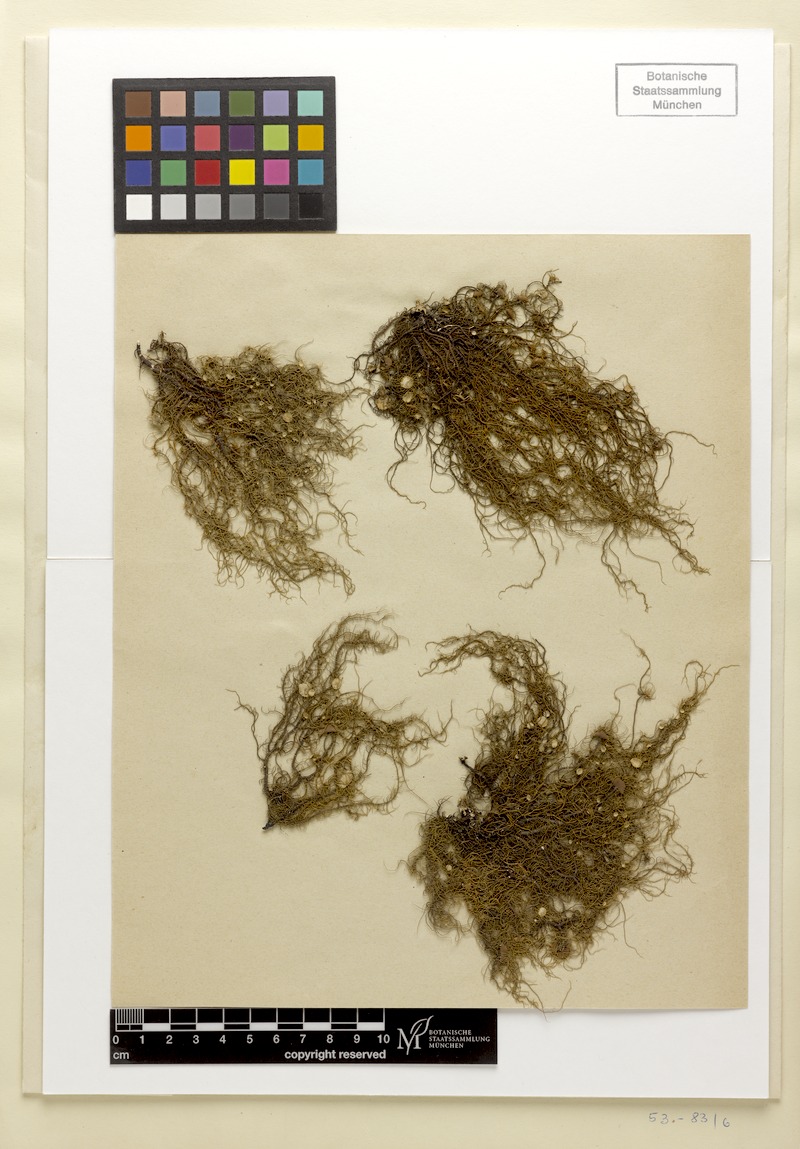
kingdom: Fungi
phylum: Ascomycota
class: Lecanoromycetes
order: Lecanorales
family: Parmeliaceae
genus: Usnea
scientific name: Usnea quasirigida
